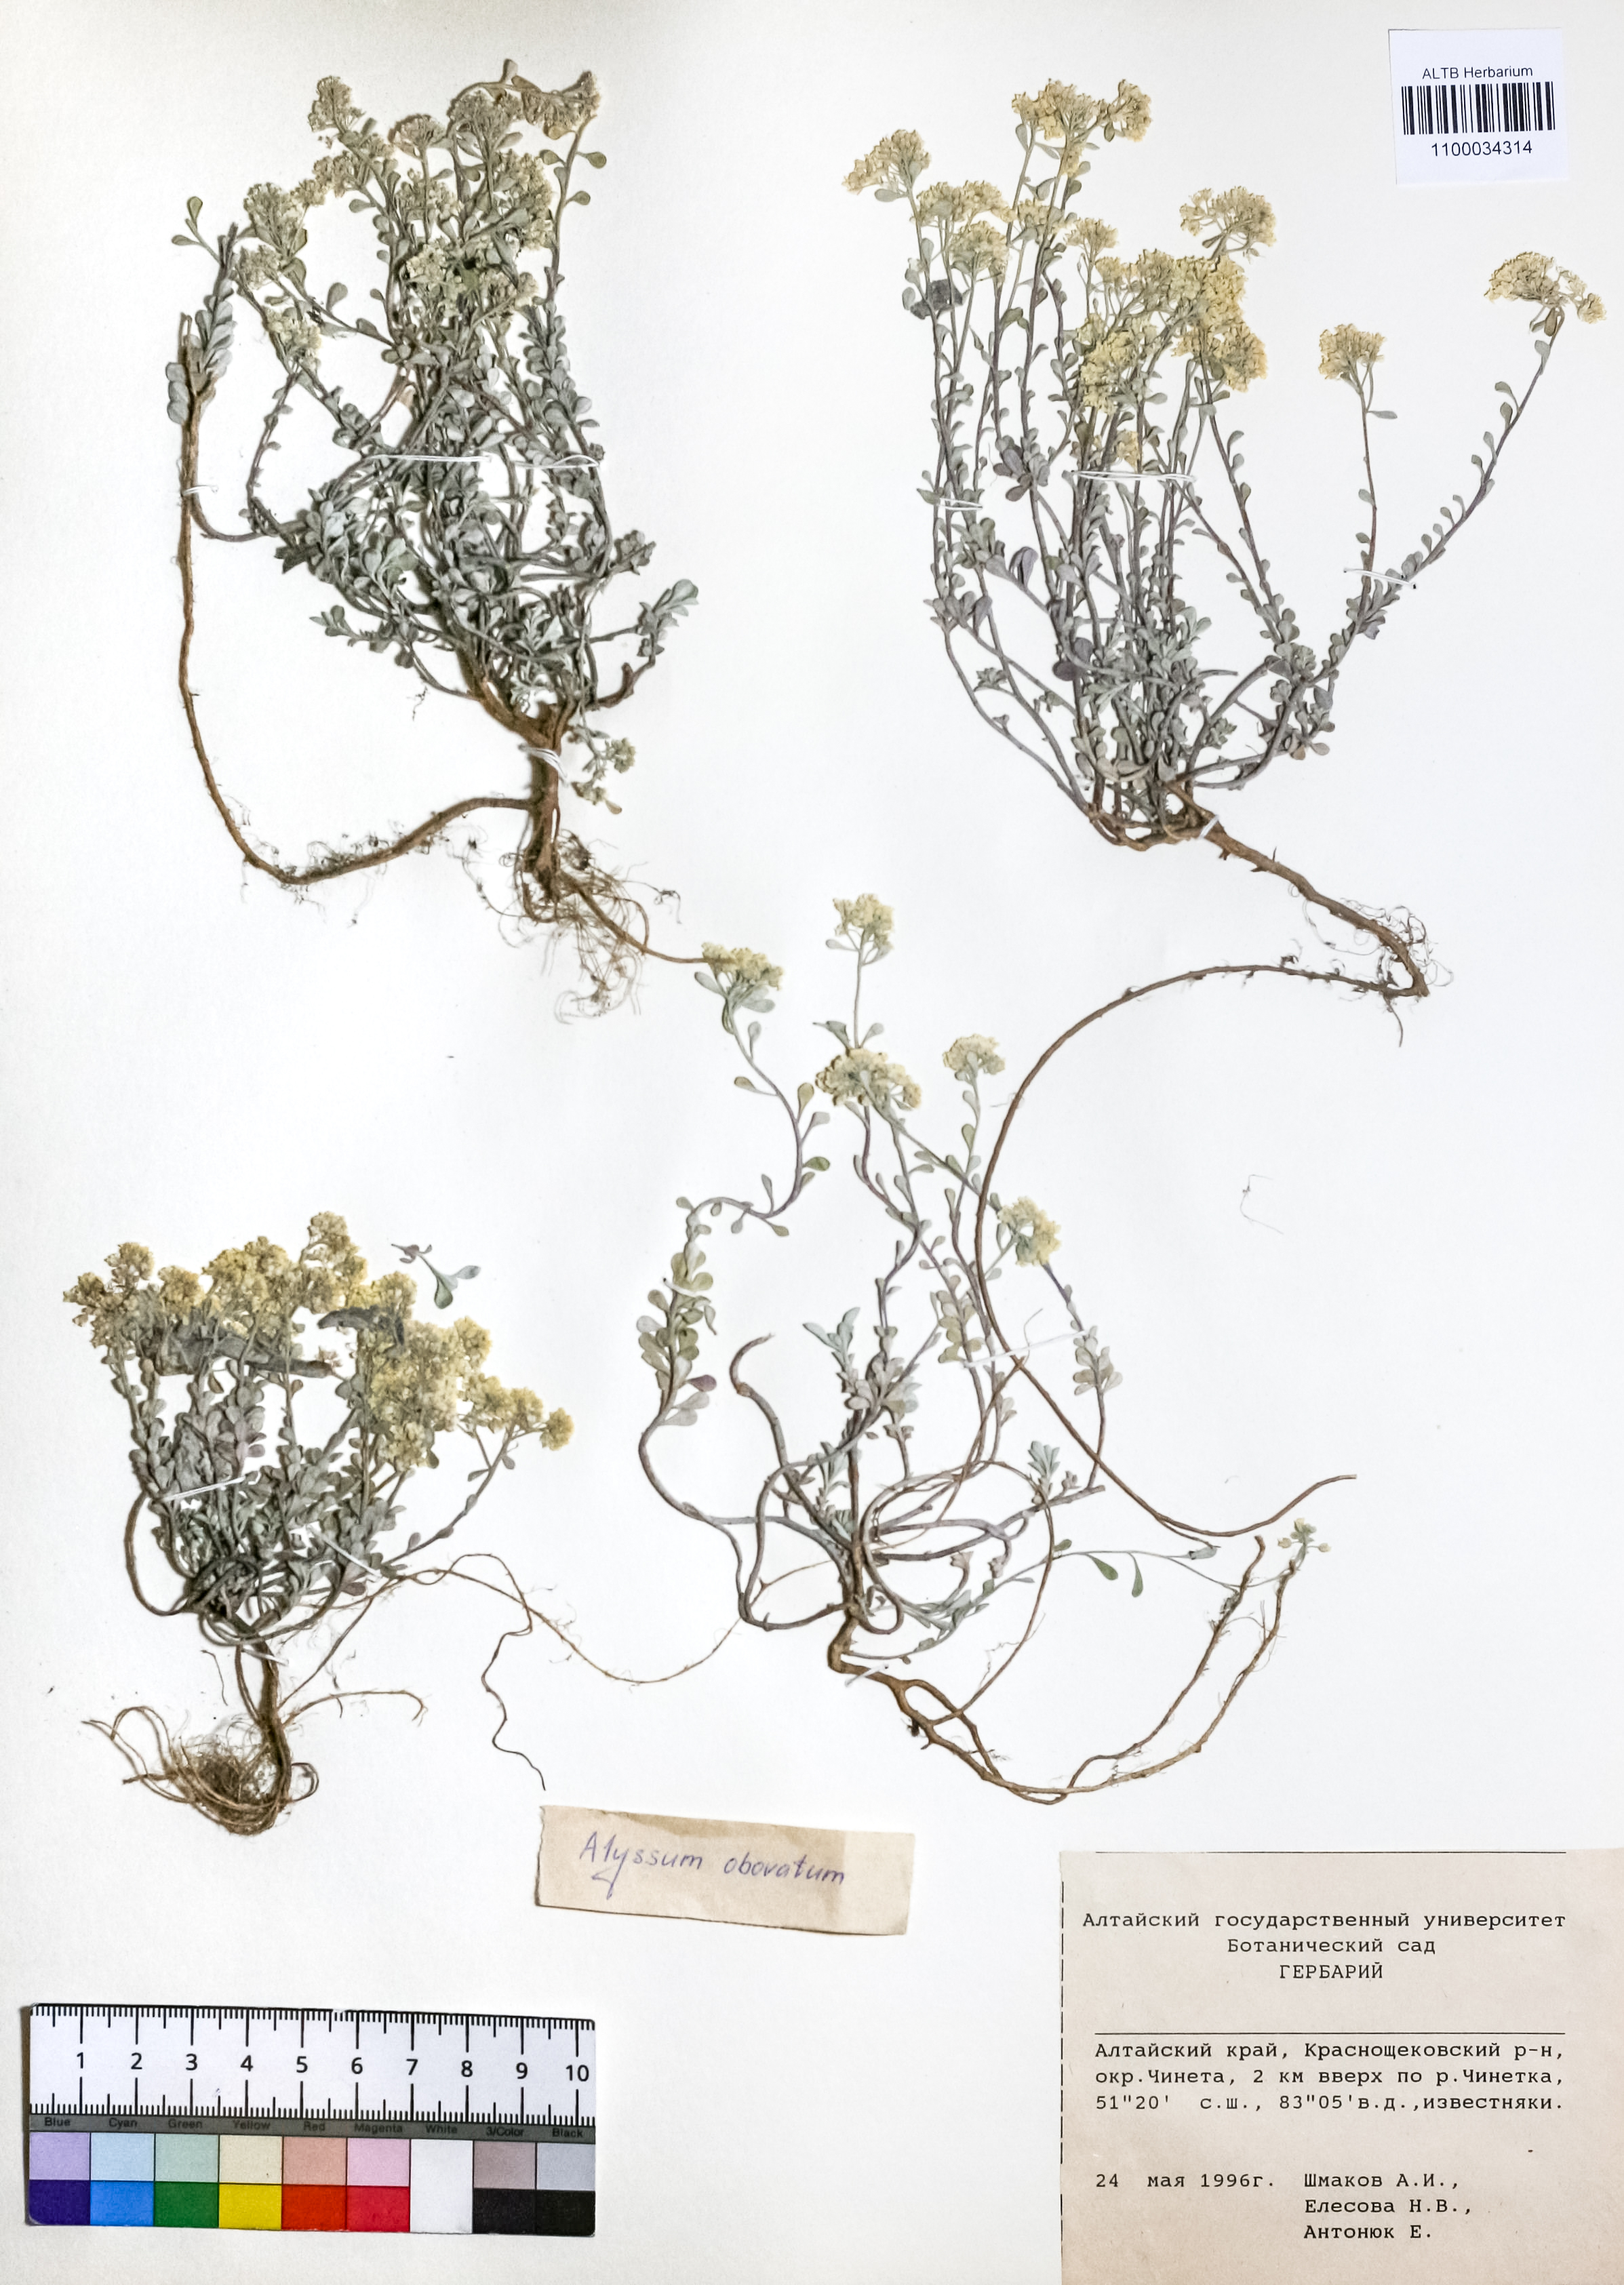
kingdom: Plantae
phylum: Tracheophyta
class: Magnoliopsida
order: Brassicales
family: Brassicaceae
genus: Odontarrhena
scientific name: Odontarrhena obovata
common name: American alyssum
